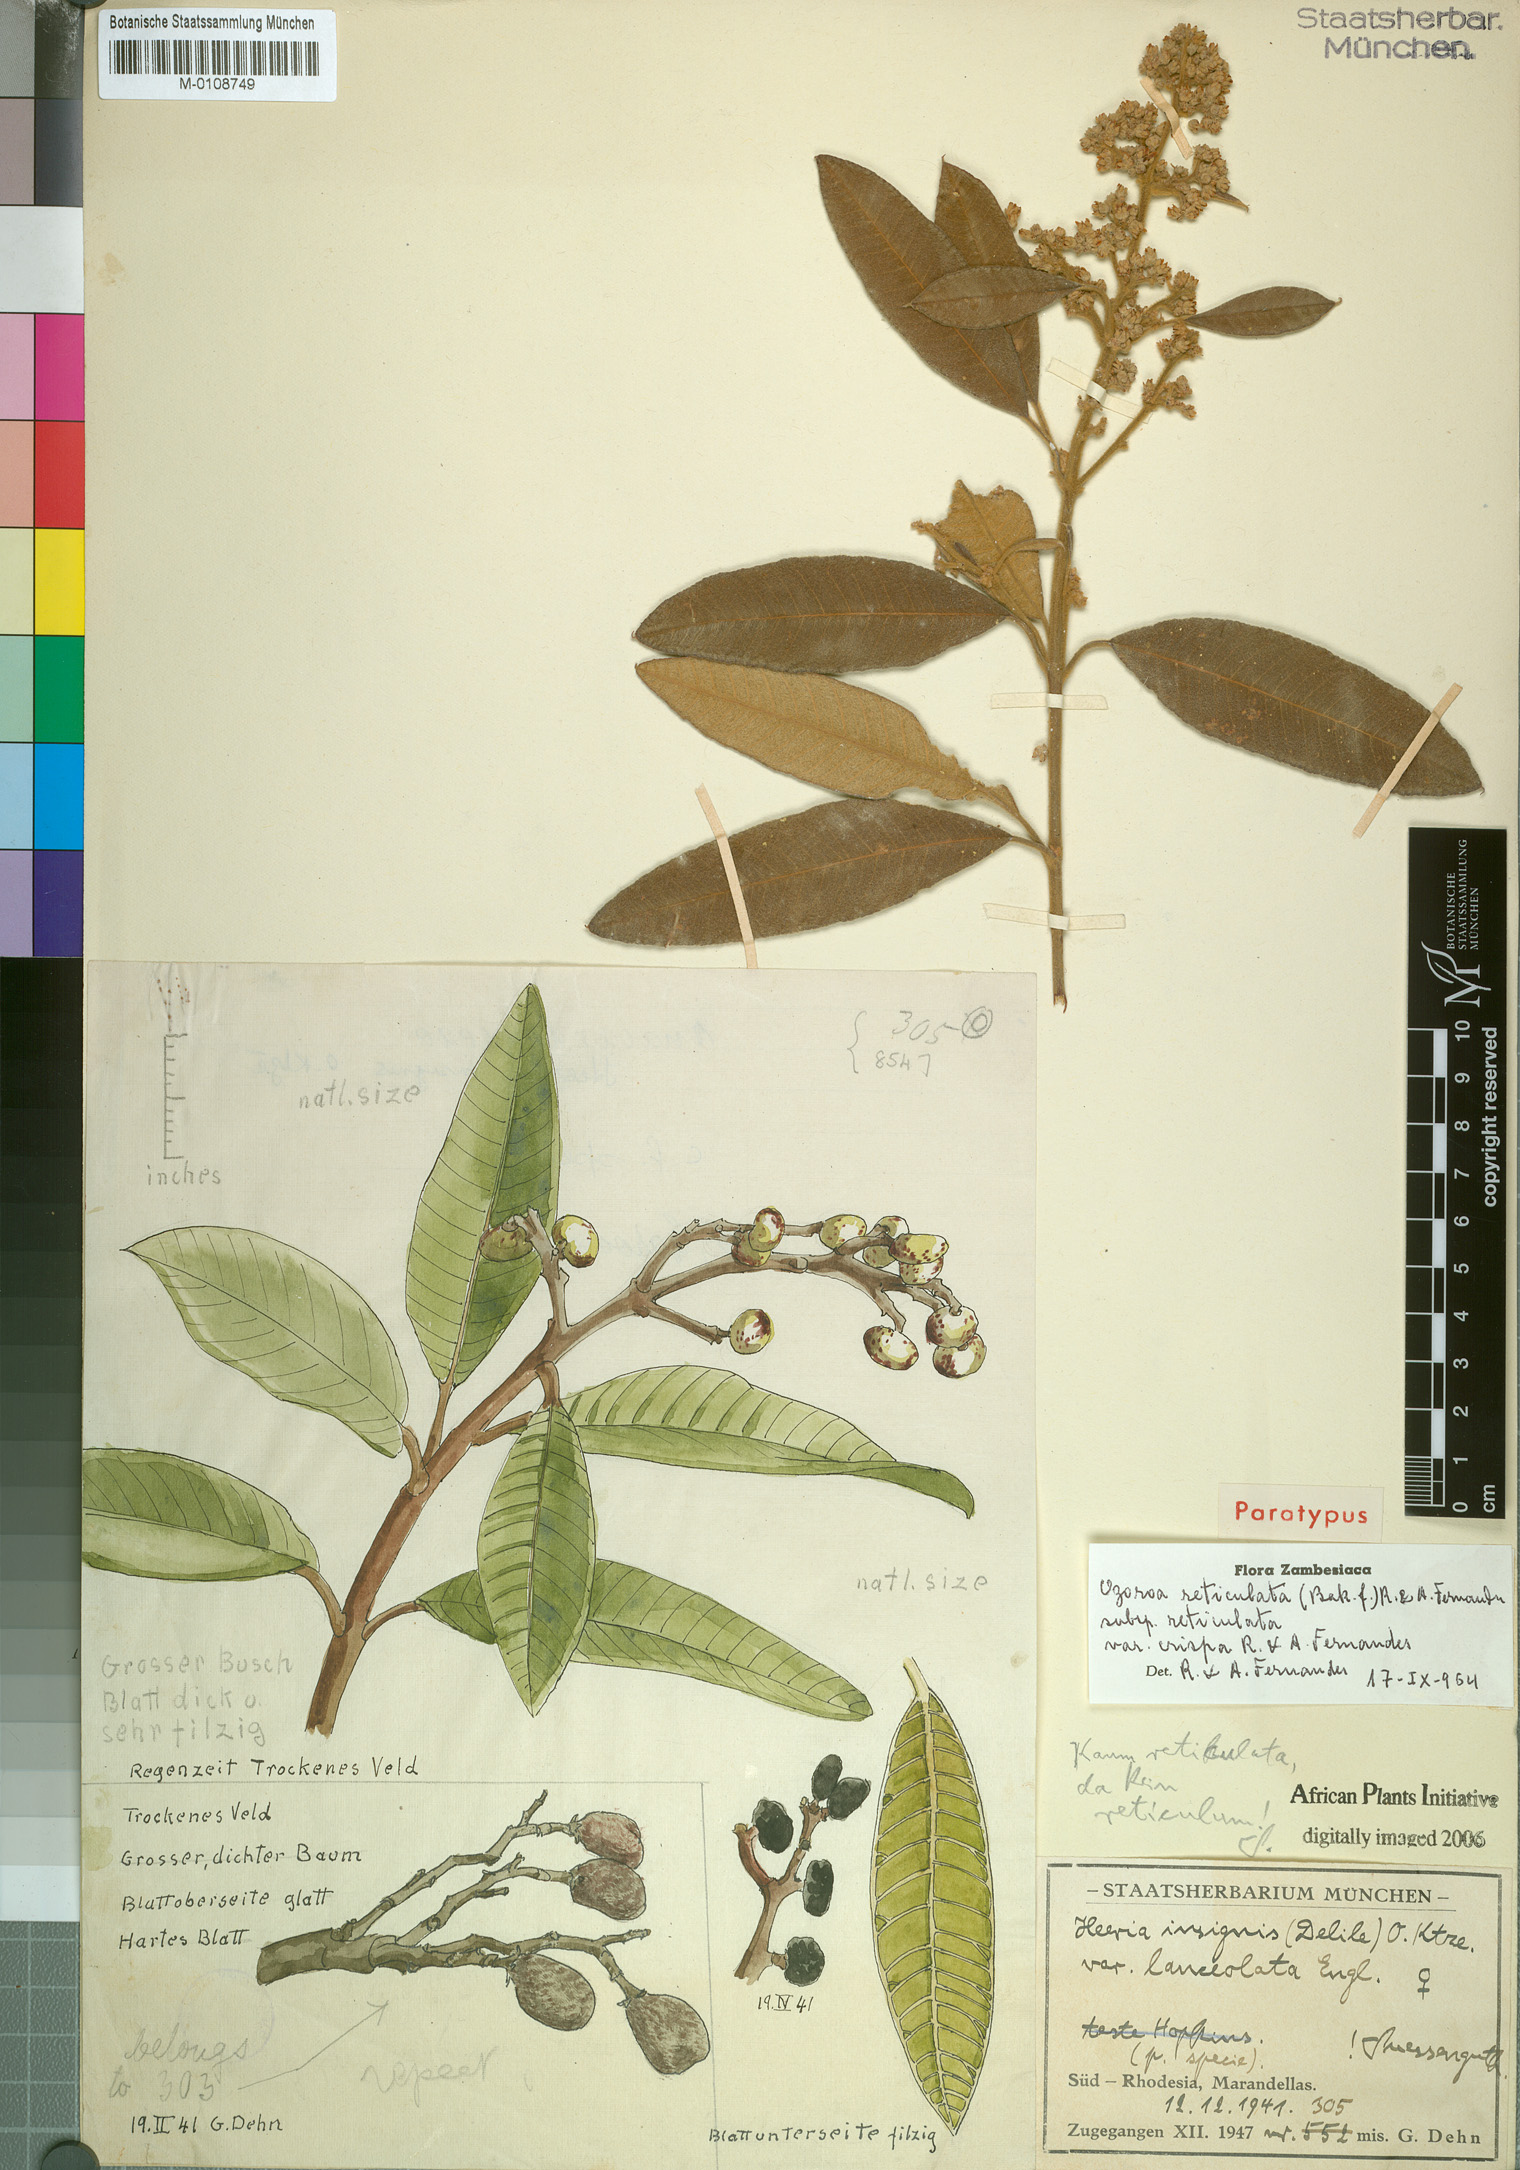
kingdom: Plantae
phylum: Tracheophyta
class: Magnoliopsida
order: Sapindales
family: Anacardiaceae
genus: Ozoroa
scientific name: Ozoroa insignis
